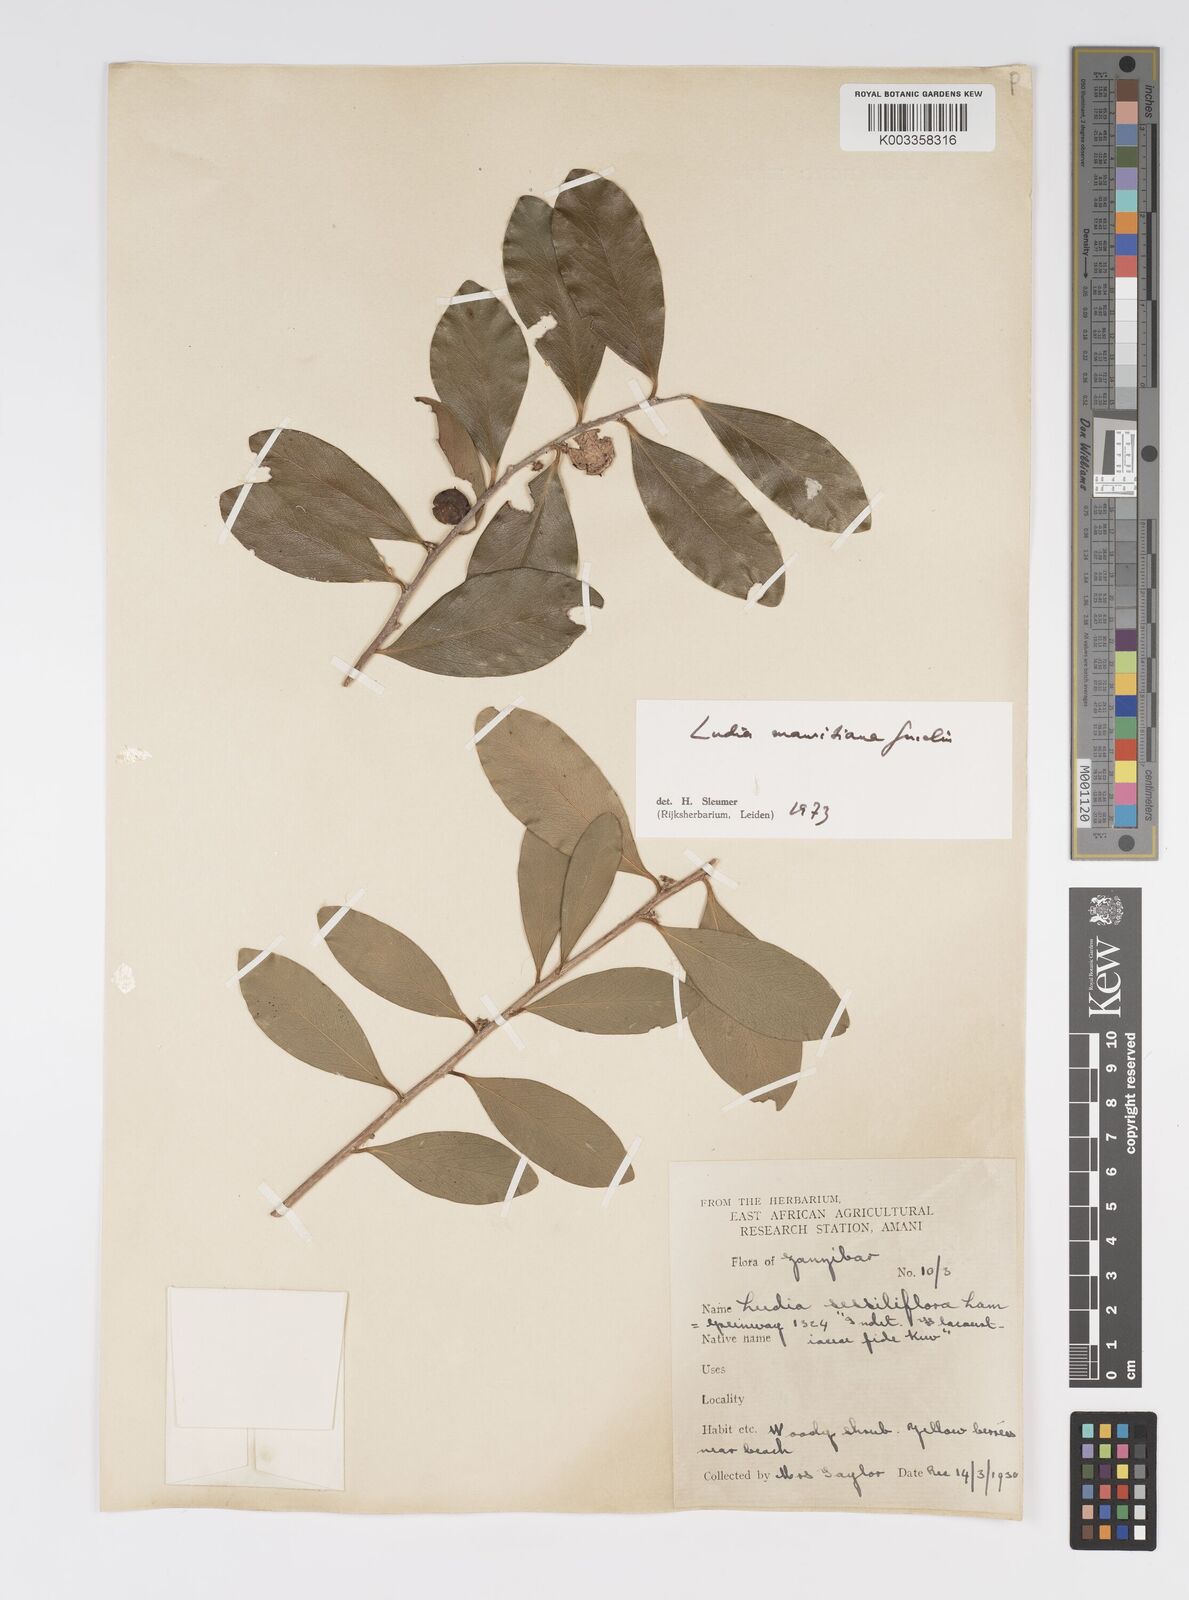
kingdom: Plantae
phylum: Tracheophyta
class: Magnoliopsida
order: Malpighiales
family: Salicaceae
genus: Ludia
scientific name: Ludia mauritiana
